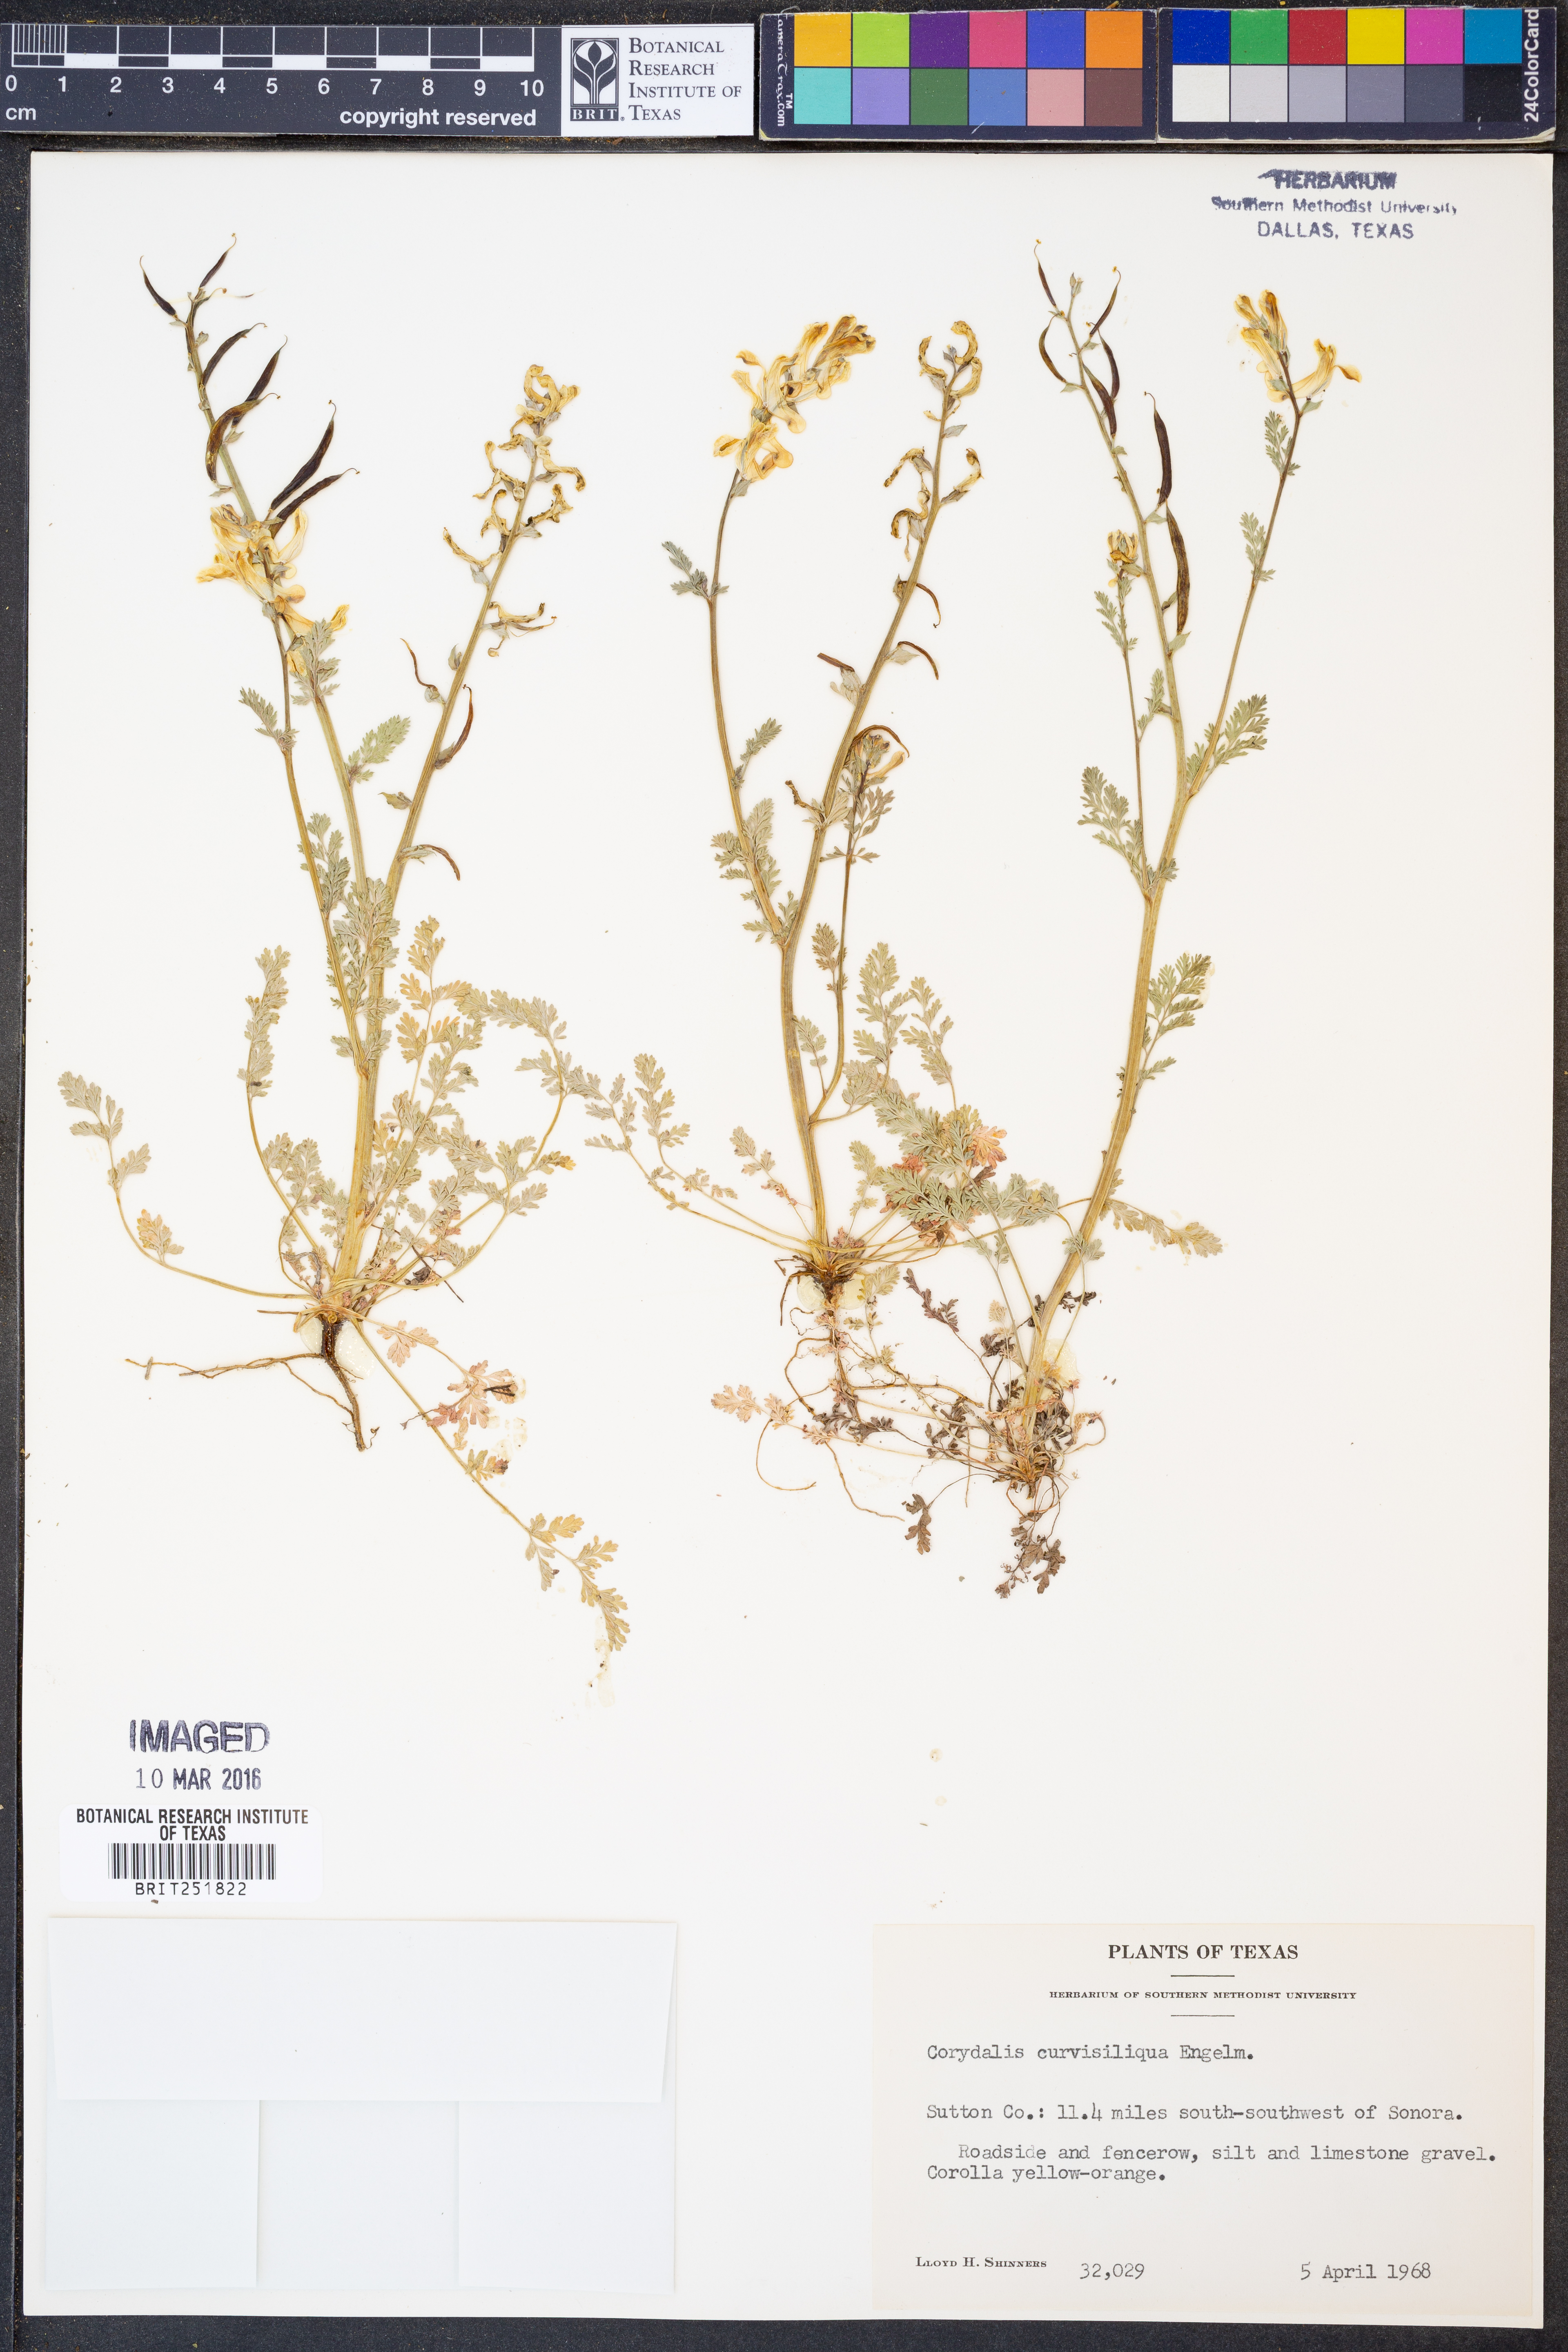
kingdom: Plantae
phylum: Tracheophyta
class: Magnoliopsida
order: Ranunculales
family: Papaveraceae
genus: Corydalis
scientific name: Corydalis curvisiliqua
